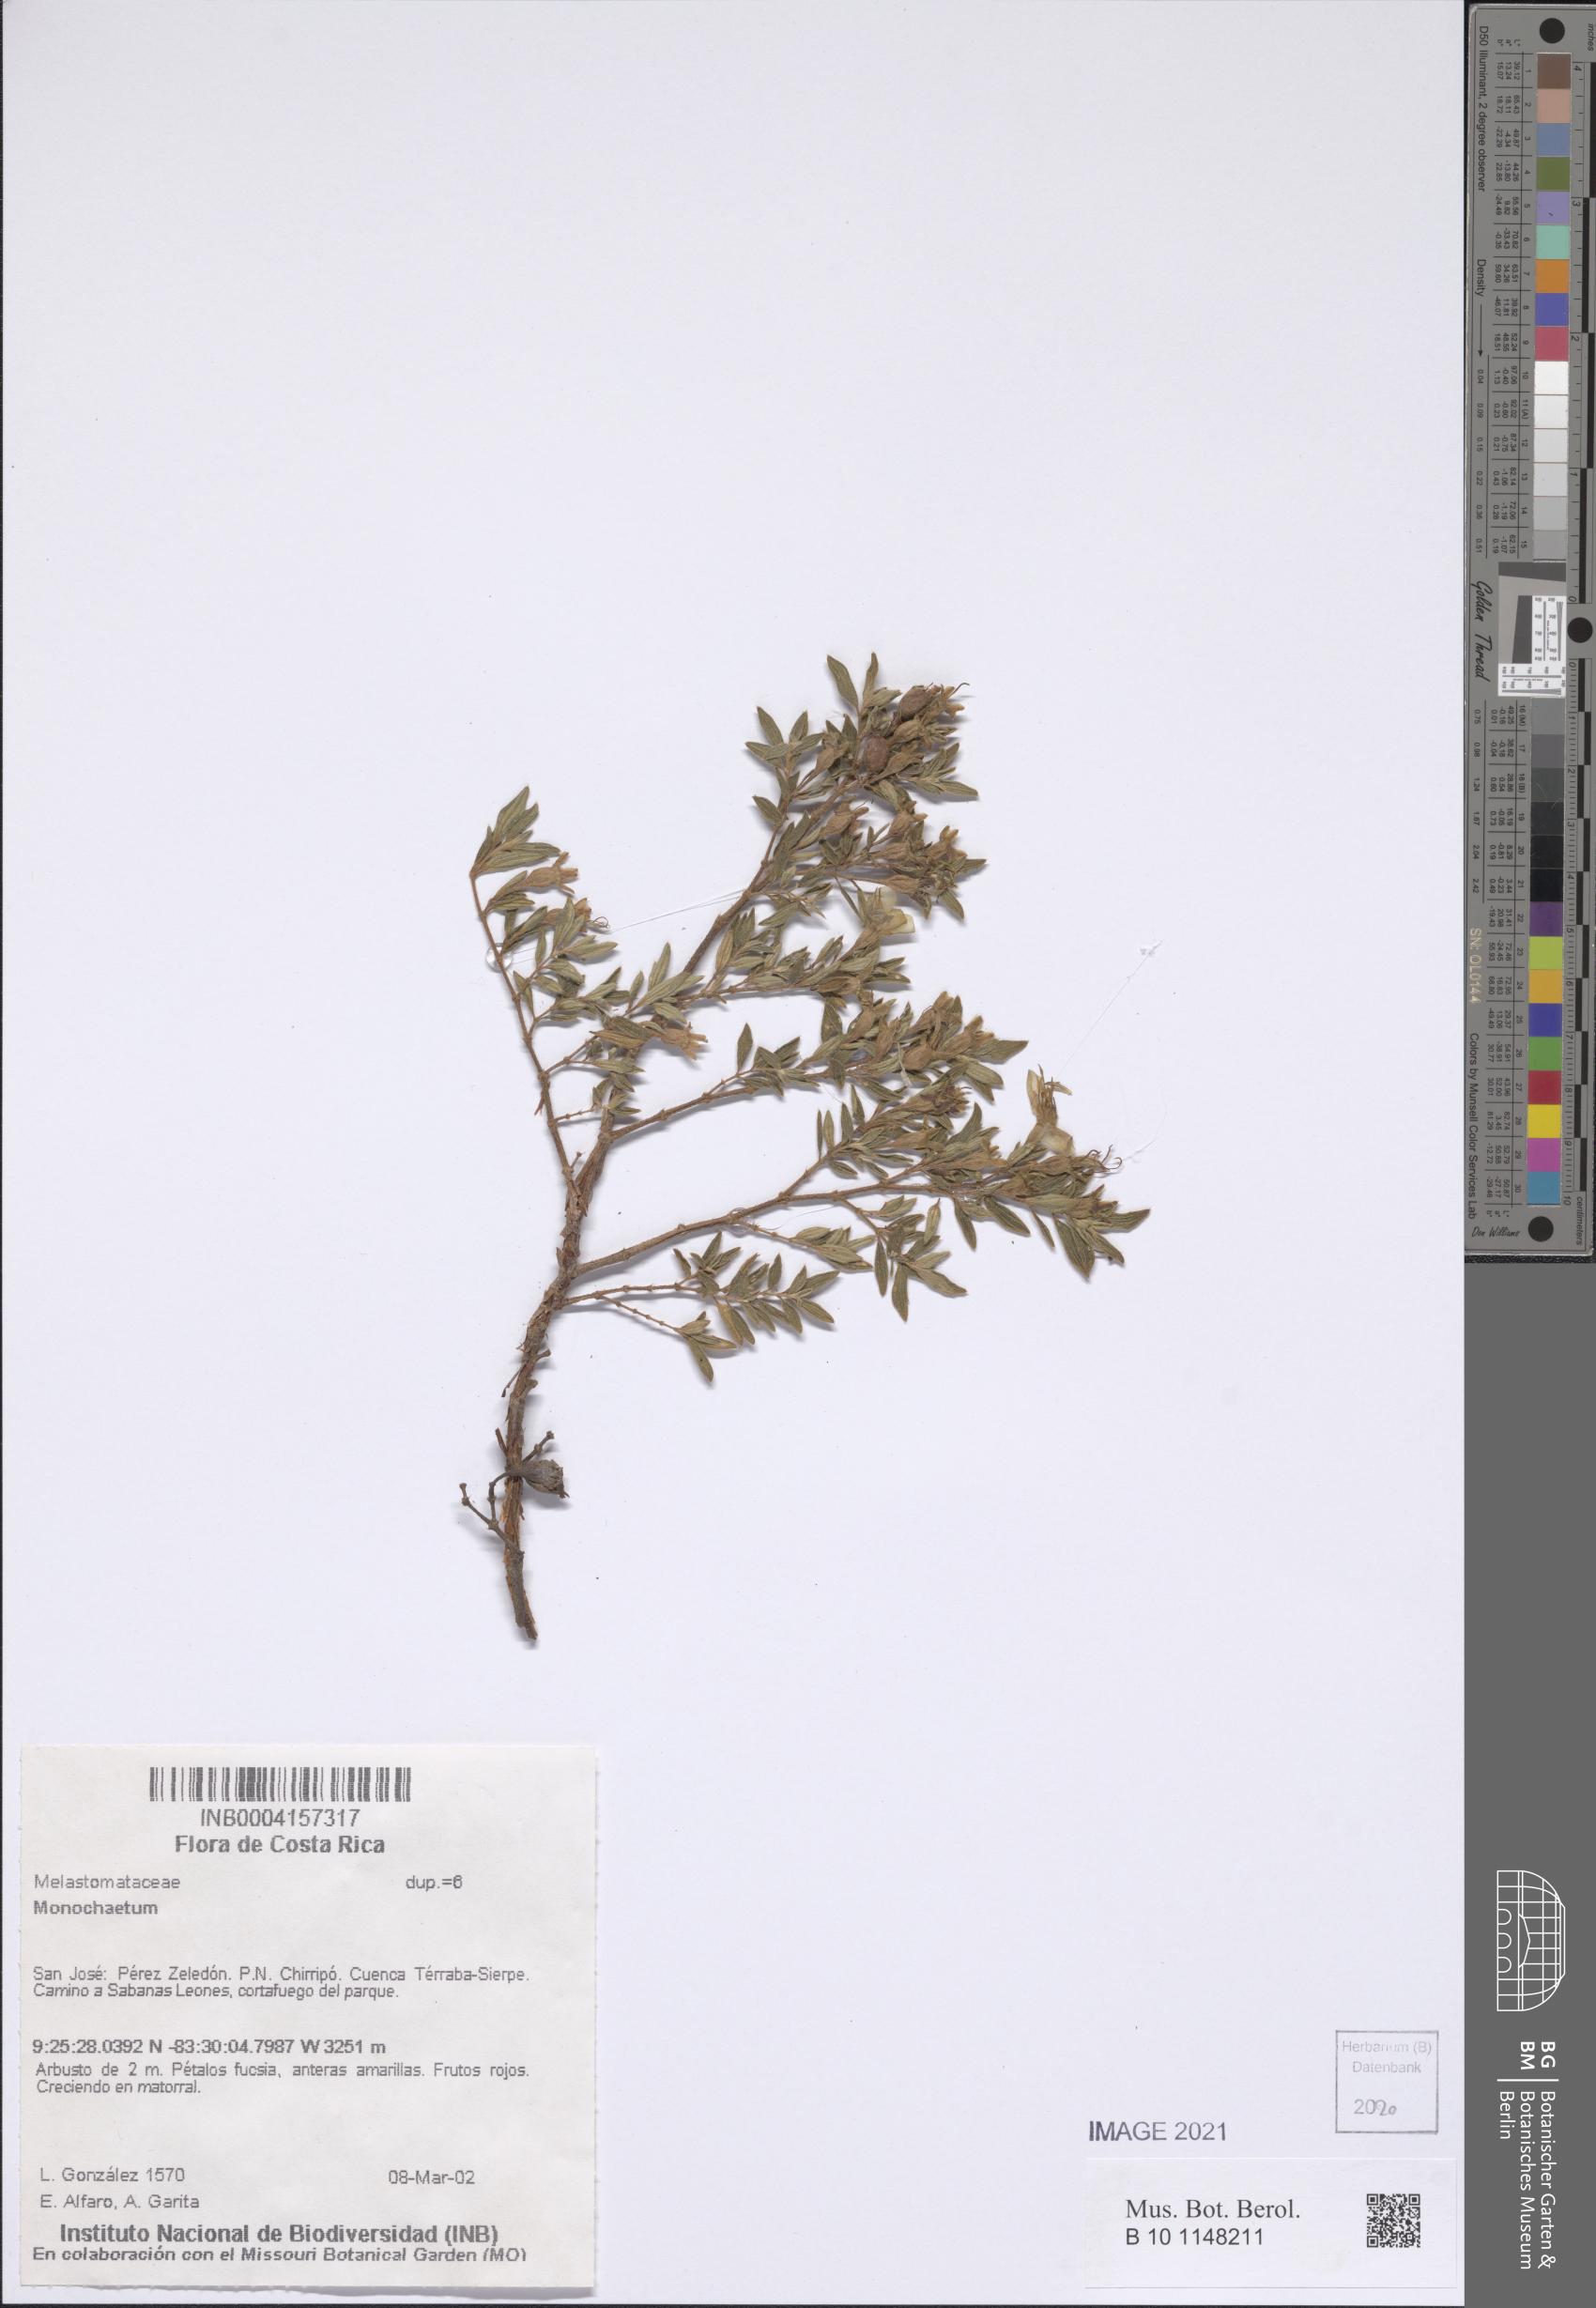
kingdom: Plantae
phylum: Tracheophyta
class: Magnoliopsida
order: Myrtales
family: Melastomataceae
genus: Monochaetum
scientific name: Monochaetum
